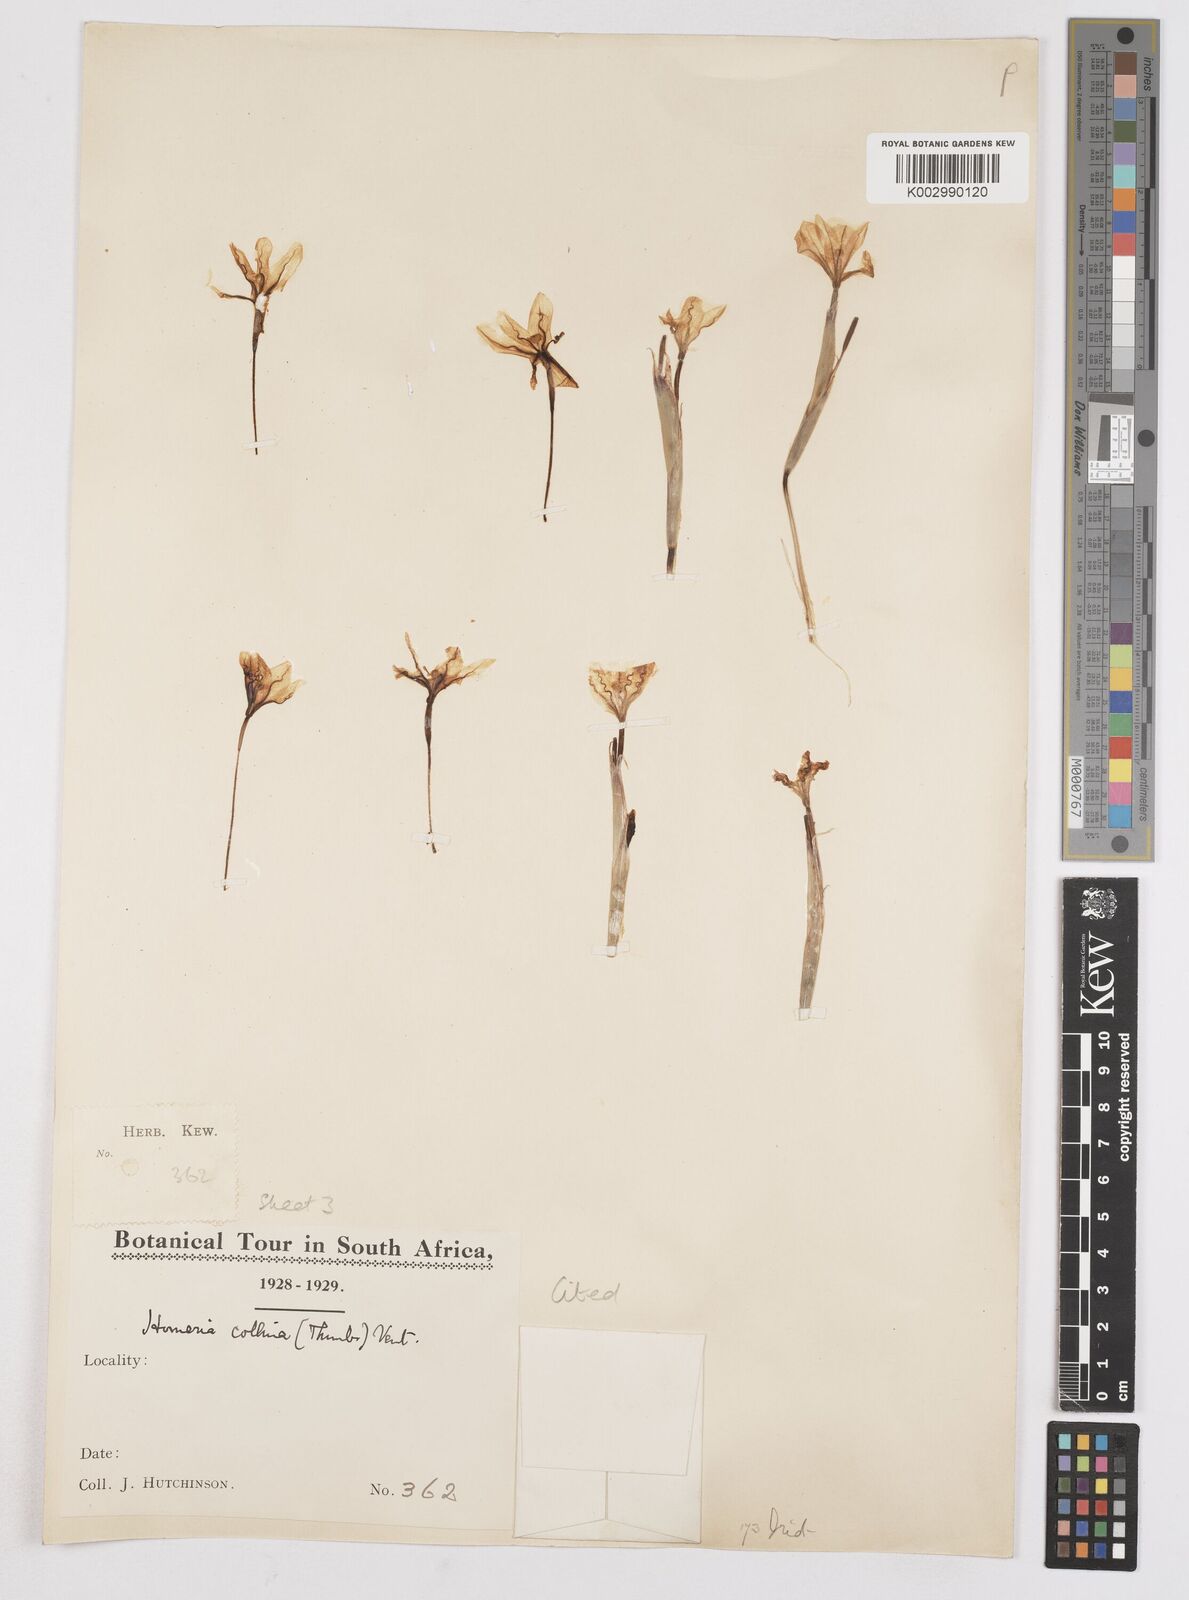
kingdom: Plantae
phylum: Tracheophyta
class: Liliopsida
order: Asparagales
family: Iridaceae
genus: Moraea
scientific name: Moraea flaccida
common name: One-leaf cape-tulip
